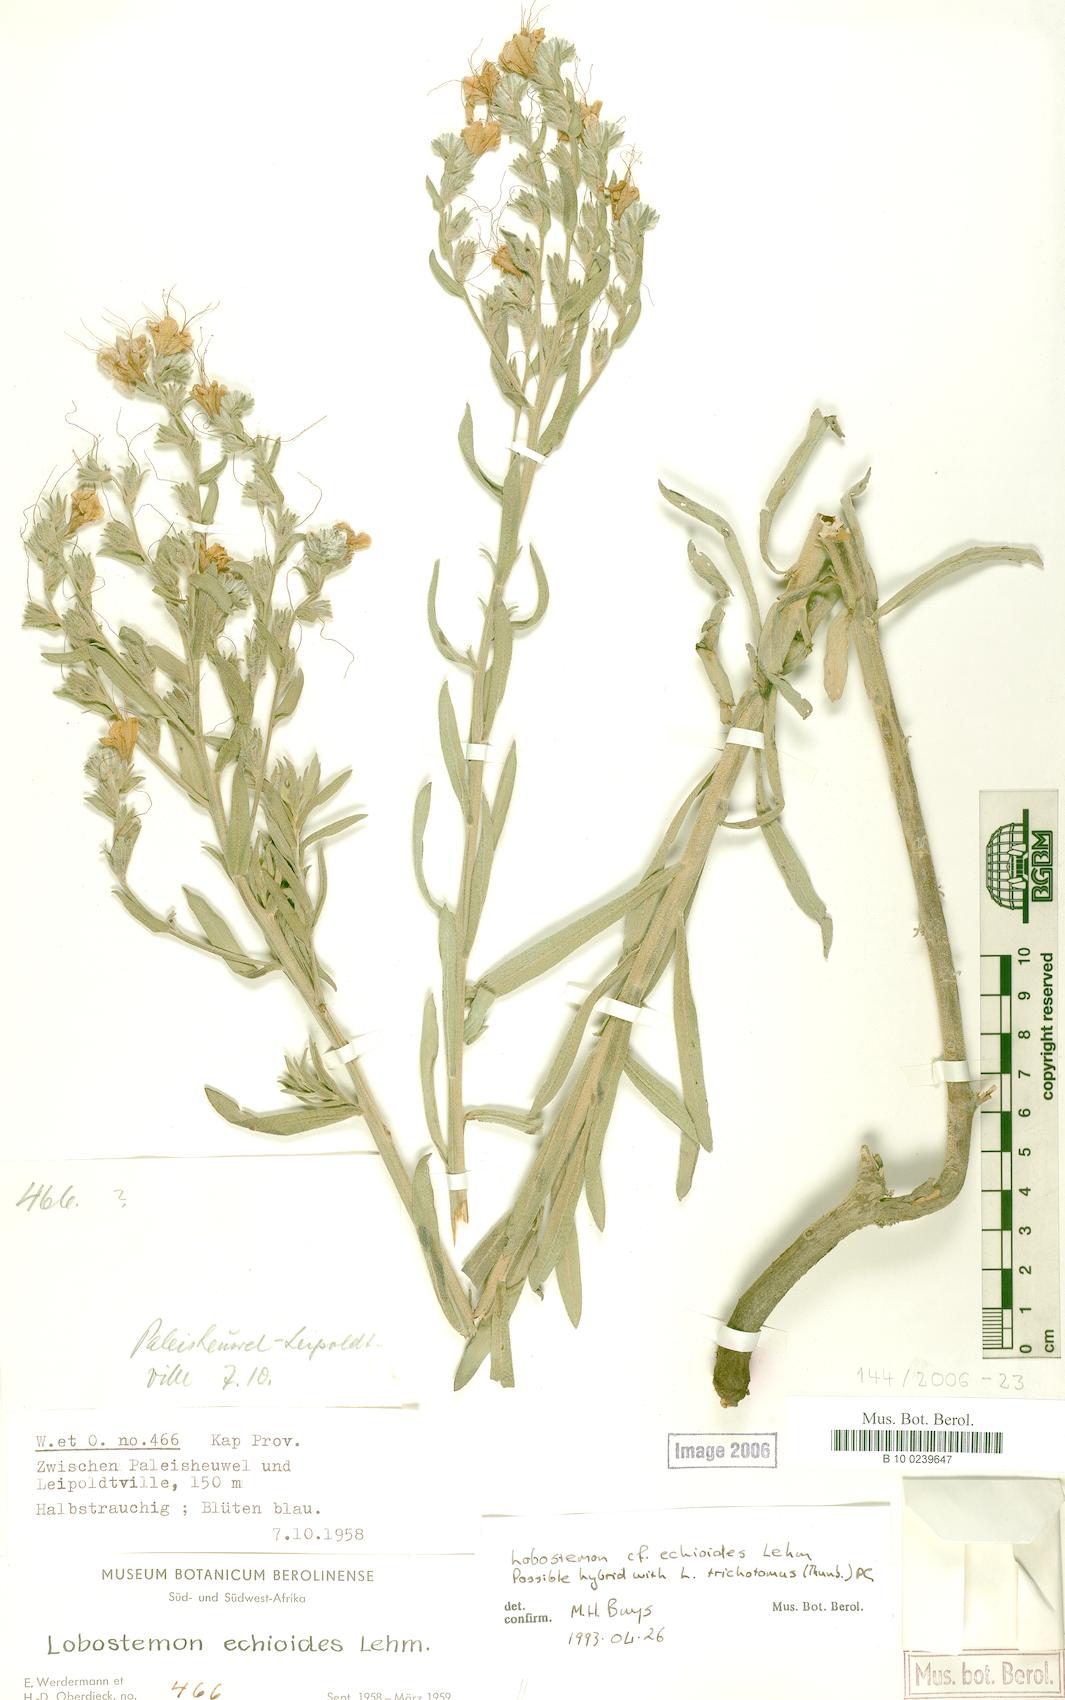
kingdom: Plantae
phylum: Tracheophyta
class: Magnoliopsida
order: Boraginales
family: Boraginaceae
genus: Lobostemon
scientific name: Lobostemon echioides
